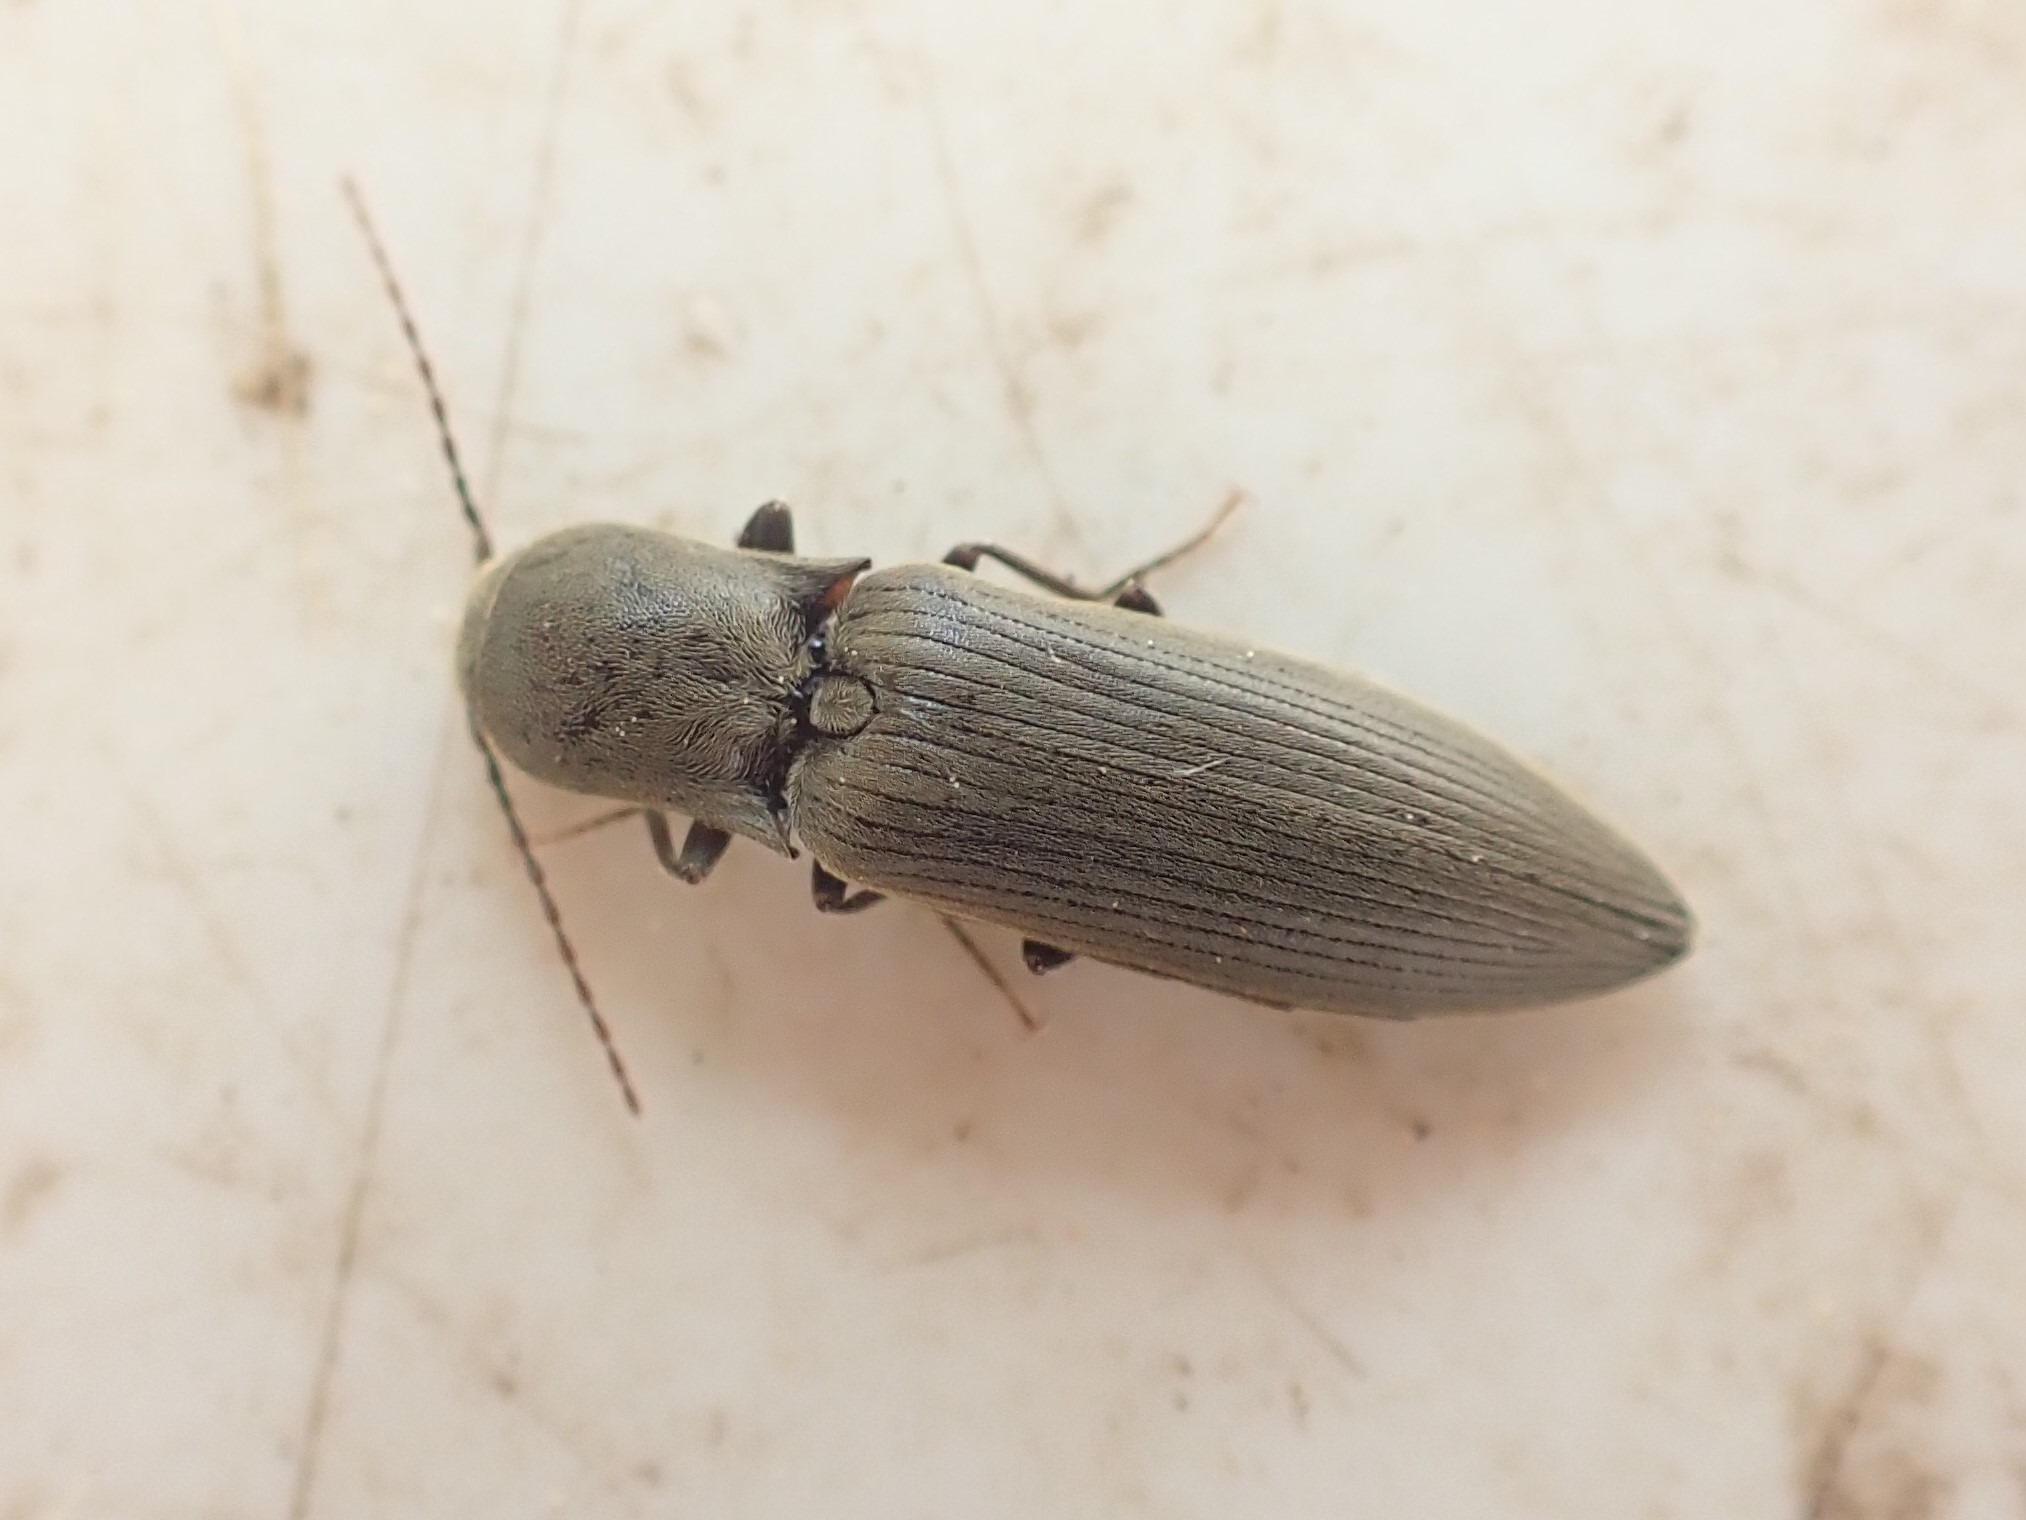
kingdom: Animalia
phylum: Arthropoda
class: Insecta
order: Coleoptera
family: Elateridae
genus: Agriotes
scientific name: Agriotes pilosellus
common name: Stor kornsmælder
